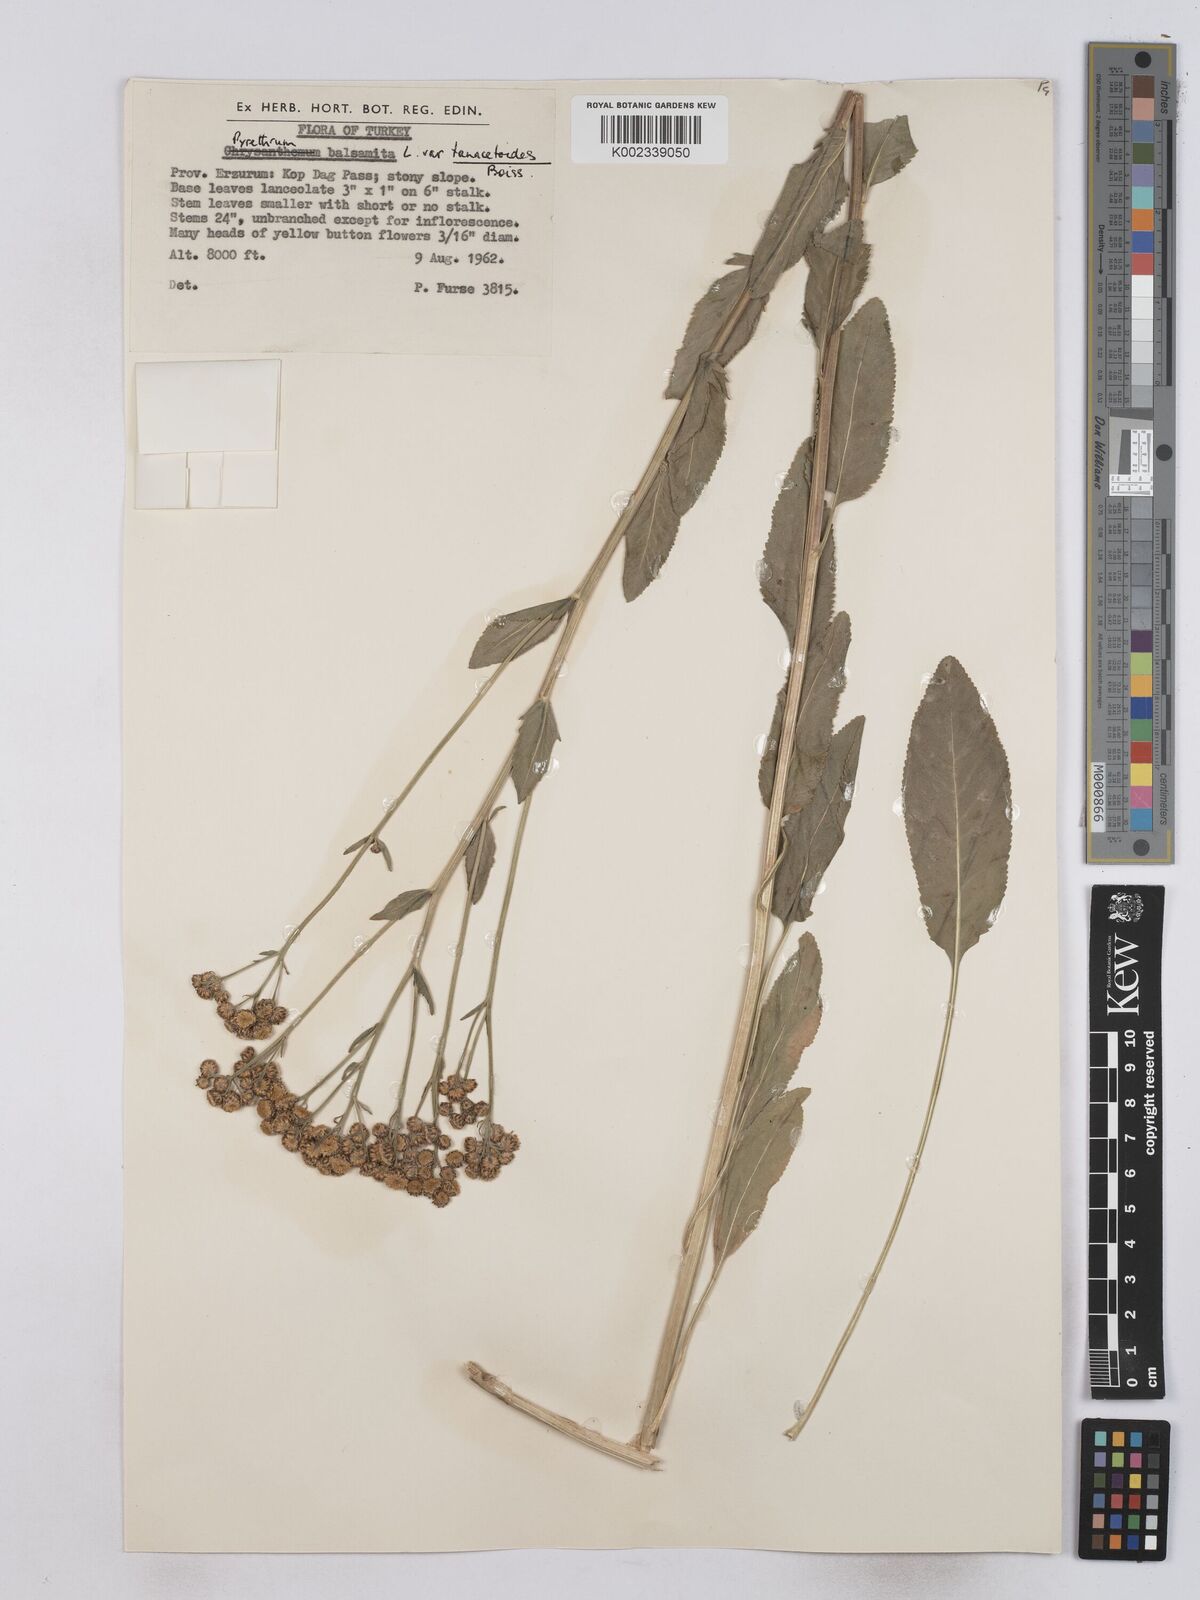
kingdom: Plantae
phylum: Tracheophyta
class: Magnoliopsida
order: Asterales
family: Asteraceae
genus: Tanacetum
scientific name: Tanacetum balsamita
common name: Costmary
